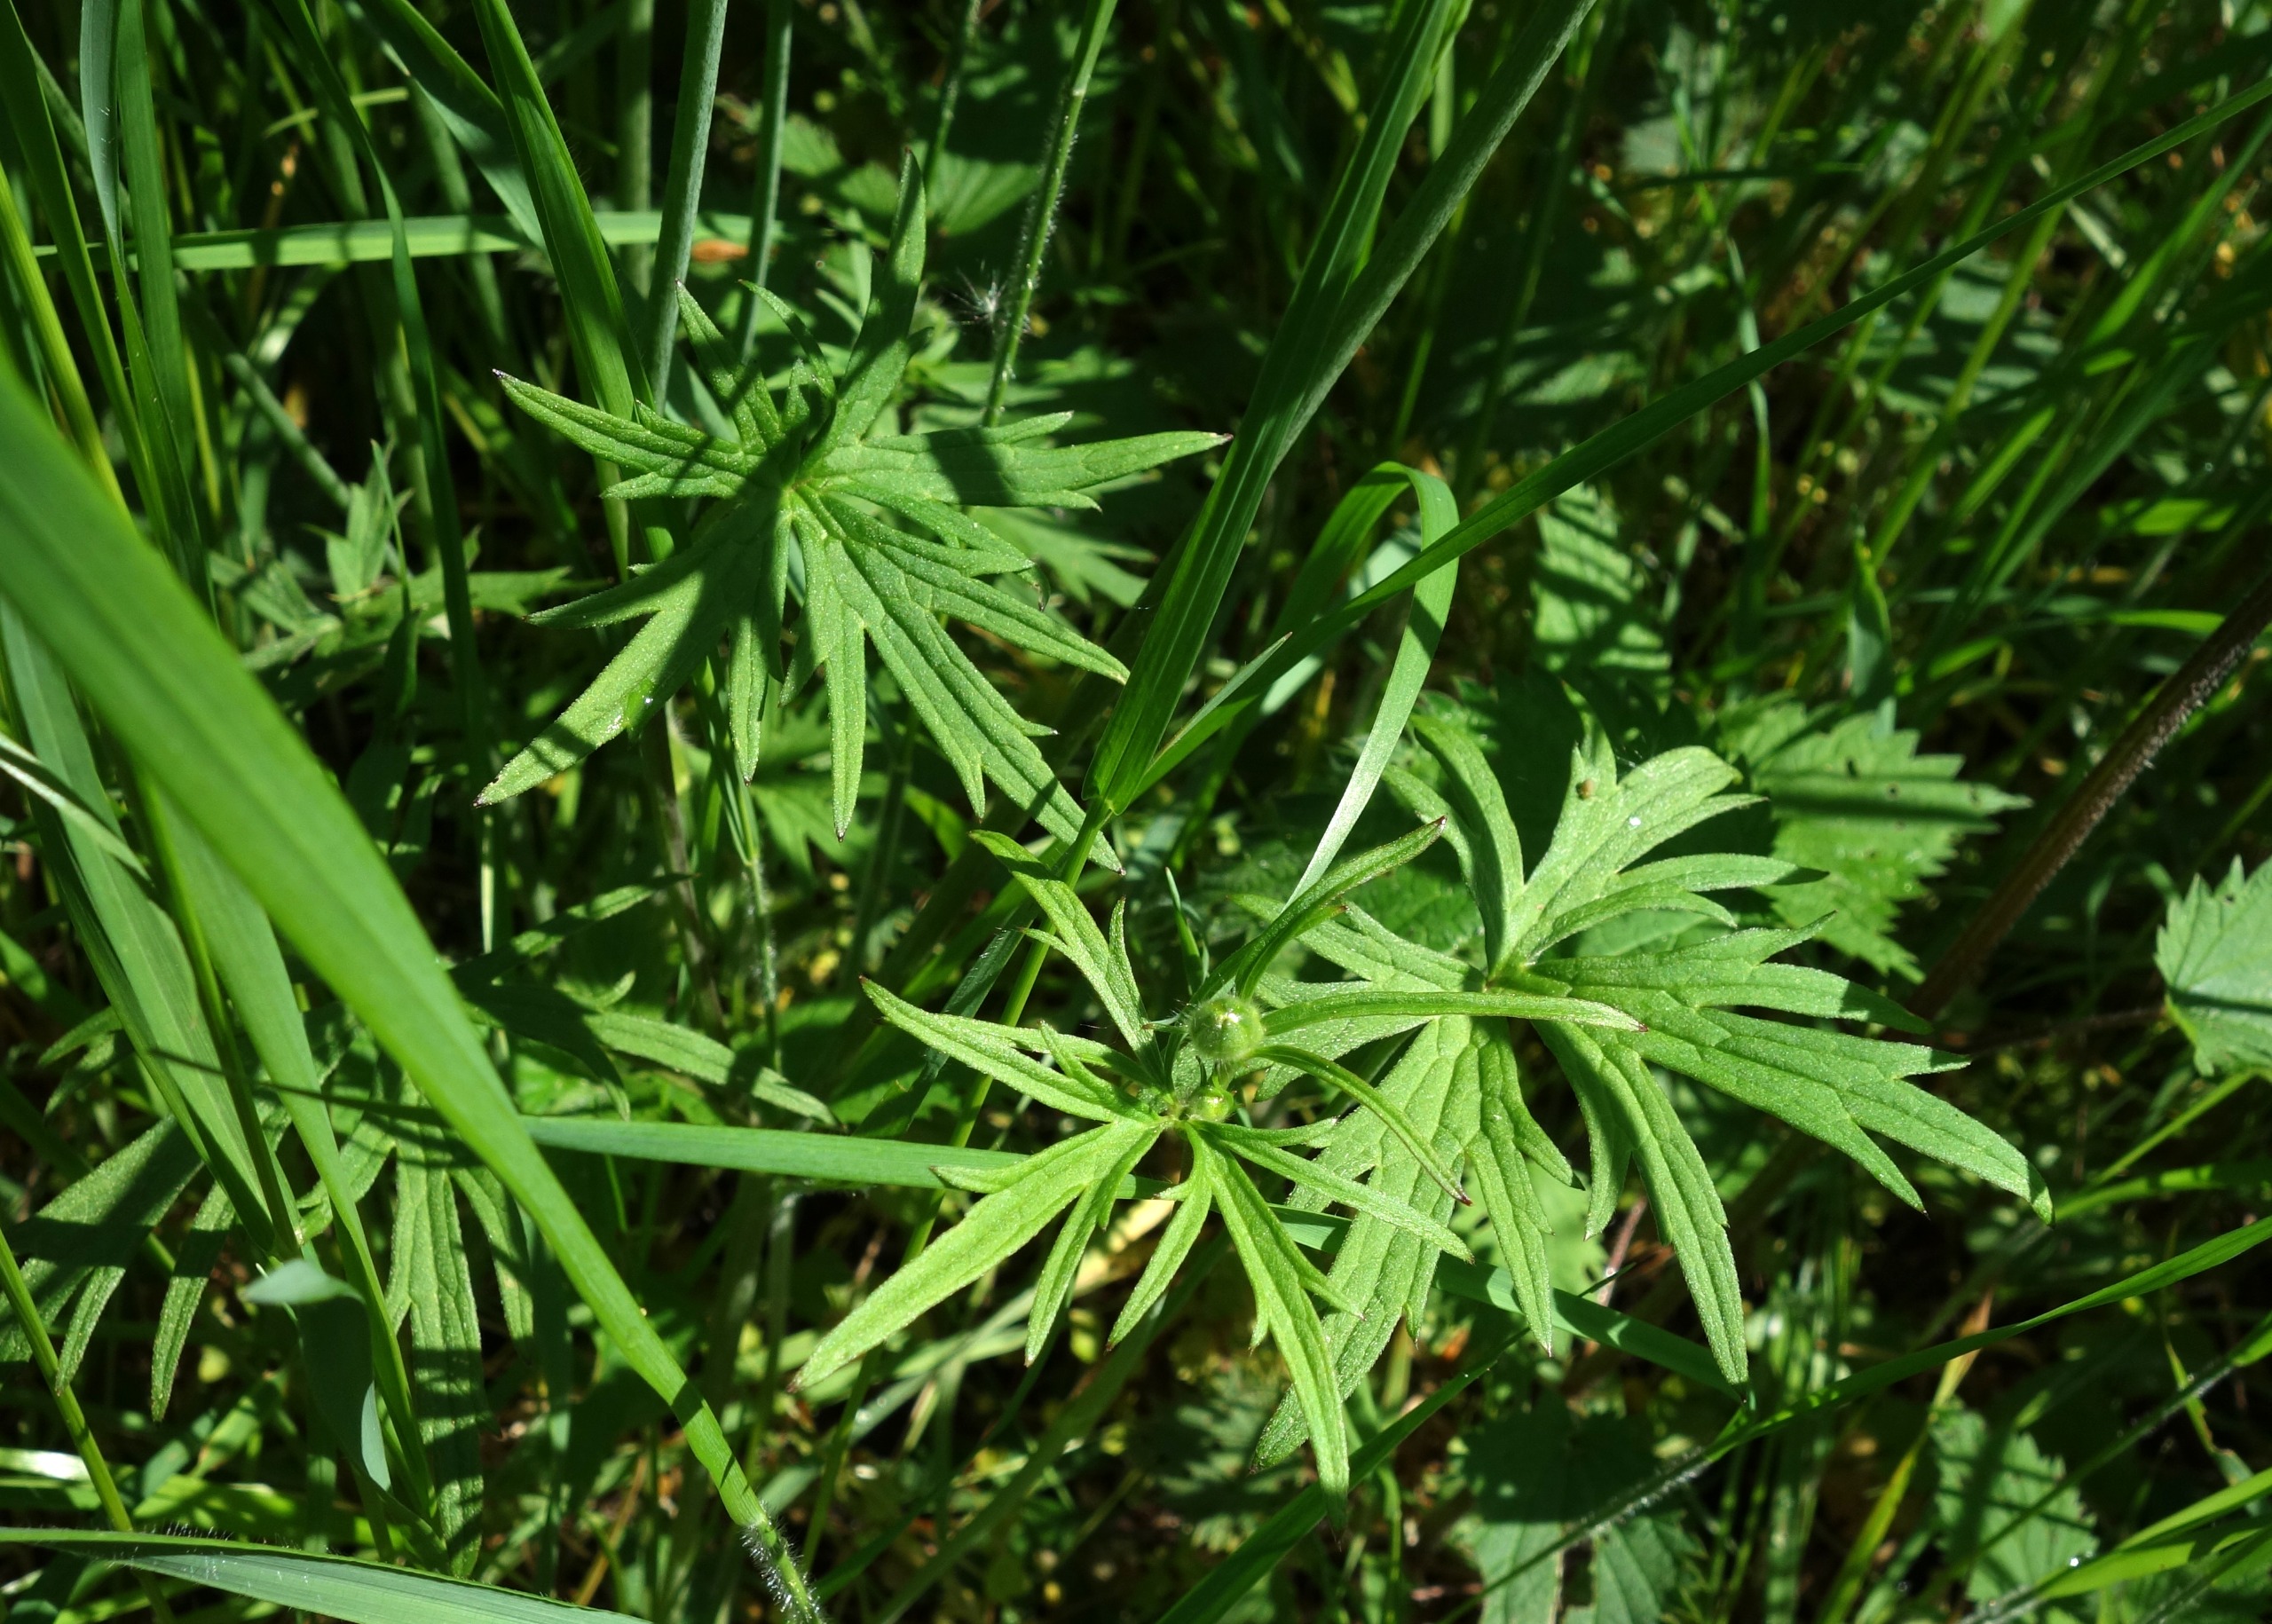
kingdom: Plantae
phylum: Tracheophyta
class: Magnoliopsida
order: Ranunculales
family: Ranunculaceae
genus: Ranunculus
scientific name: Ranunculus acris
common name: Bidende ranunkel
